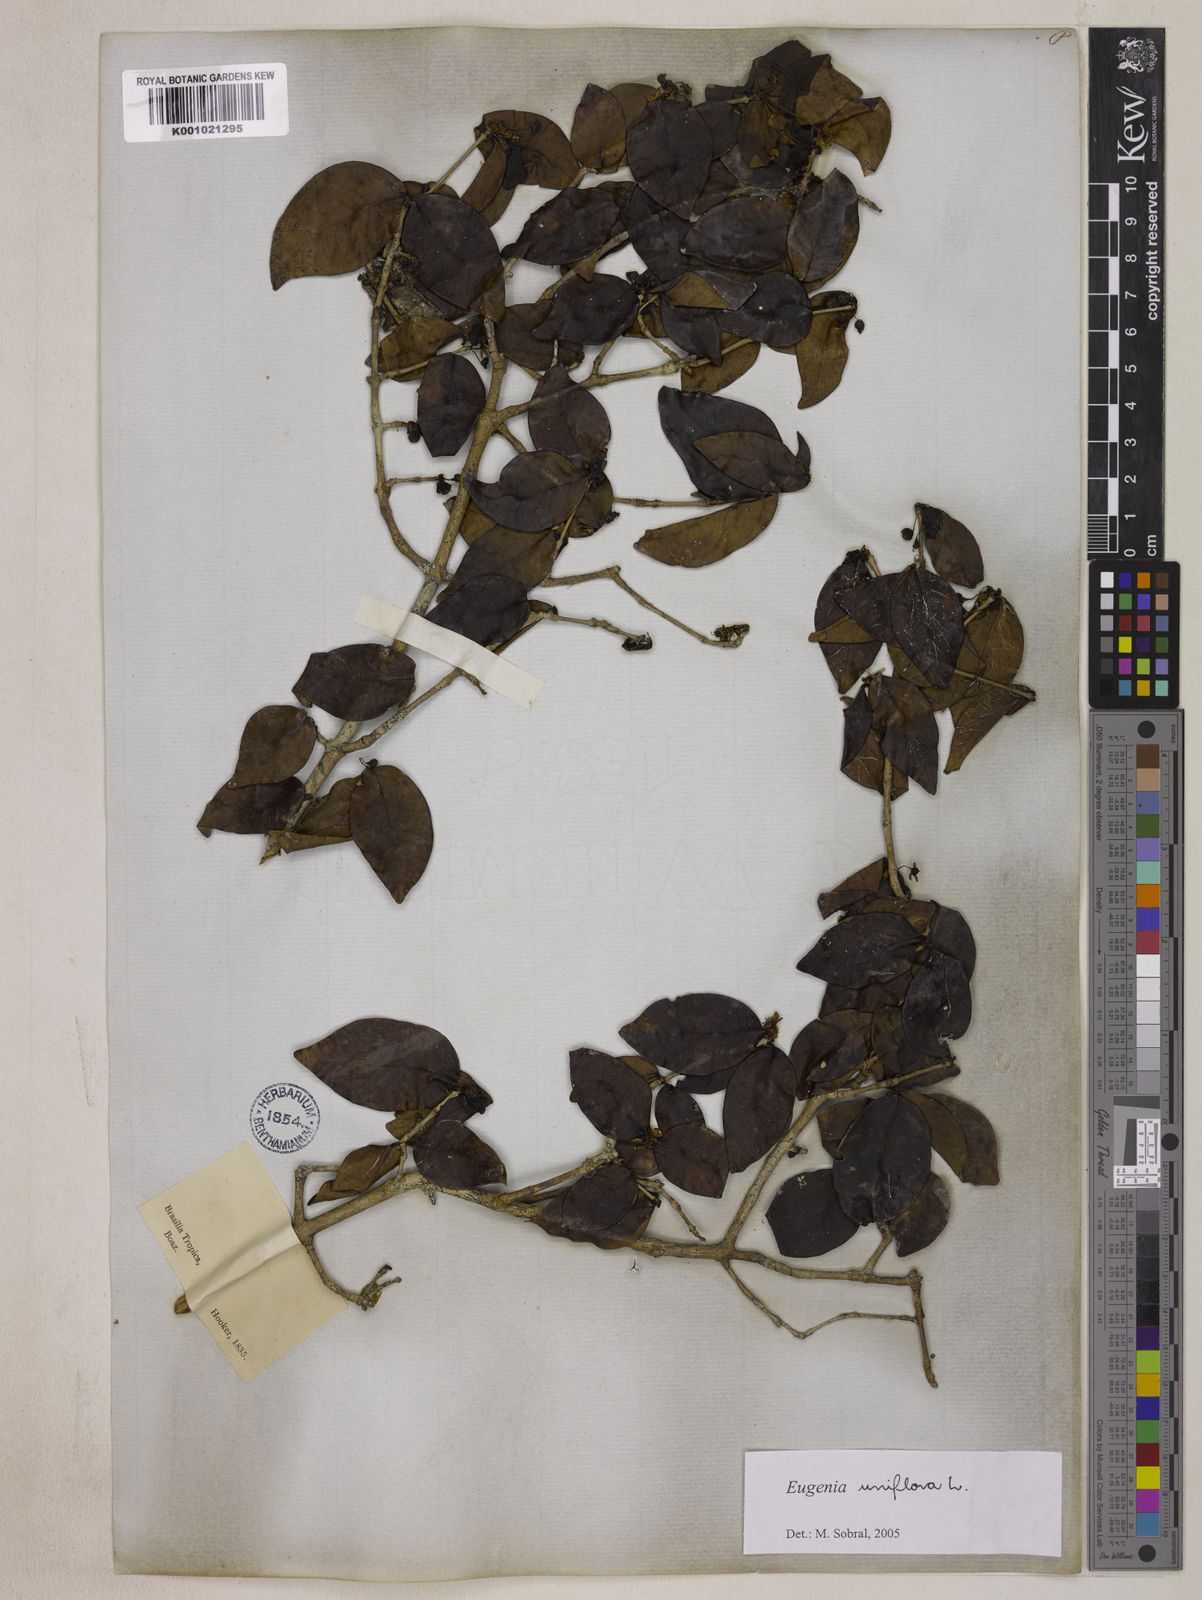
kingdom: Plantae
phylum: Tracheophyta
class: Magnoliopsida
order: Myrtales
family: Myrtaceae
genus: Eugenia
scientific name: Eugenia uniflora
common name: Surinam cherry
